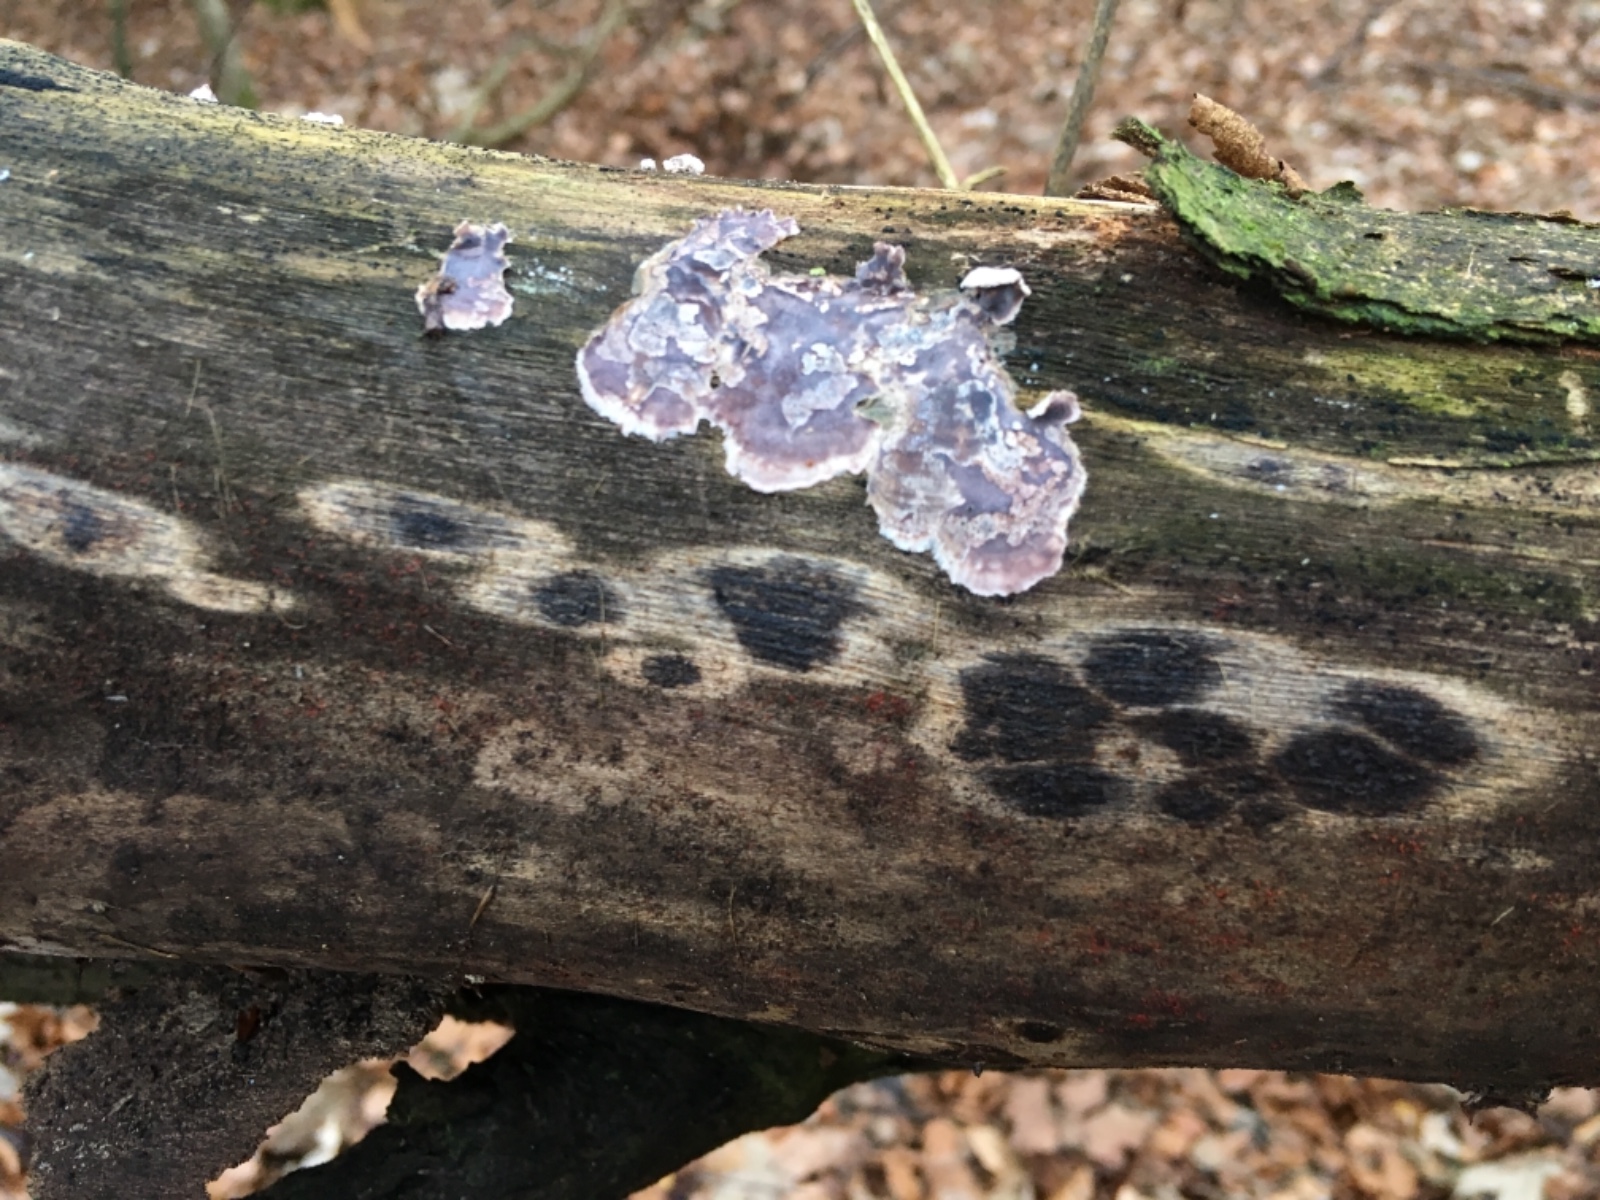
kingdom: Fungi
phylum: Basidiomycota
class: Agaricomycetes
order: Agaricales
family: Cyphellaceae
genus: Chondrostereum
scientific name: Chondrostereum purpureum
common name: purpurlædersvamp
